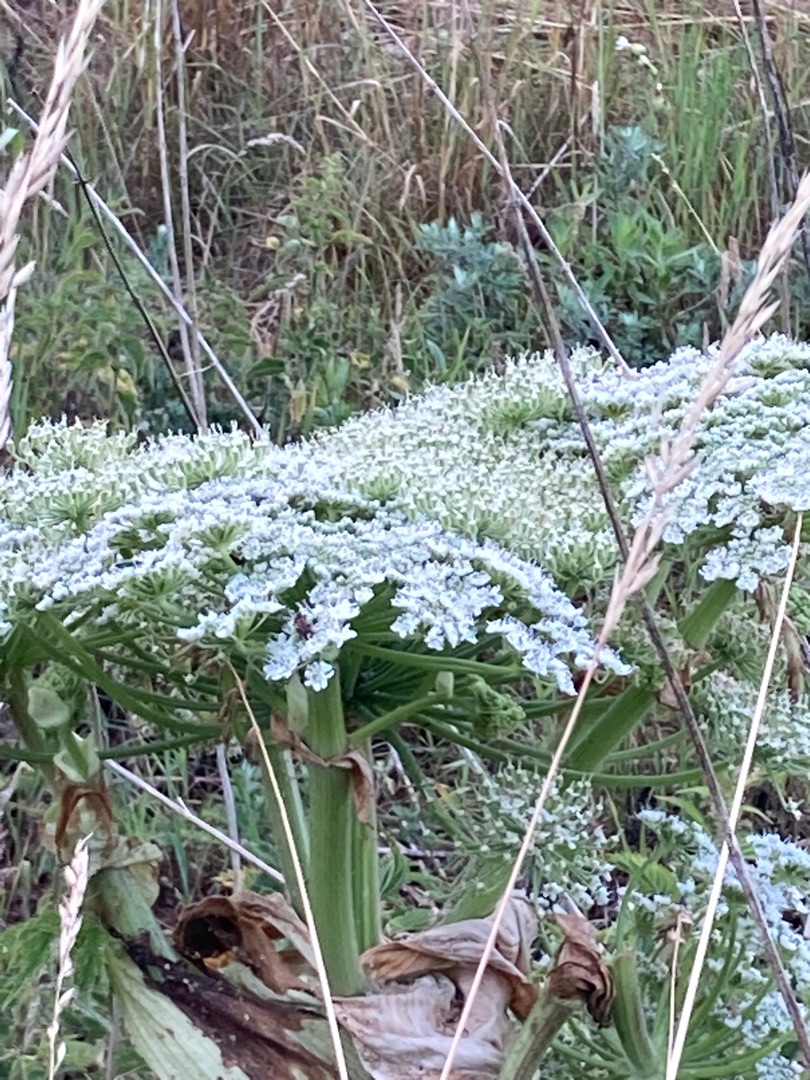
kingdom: Plantae
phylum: Tracheophyta
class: Magnoliopsida
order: Apiales
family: Apiaceae
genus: Heracleum
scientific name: Heracleum mantegazzianum
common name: Kæmpe-bjørneklo
